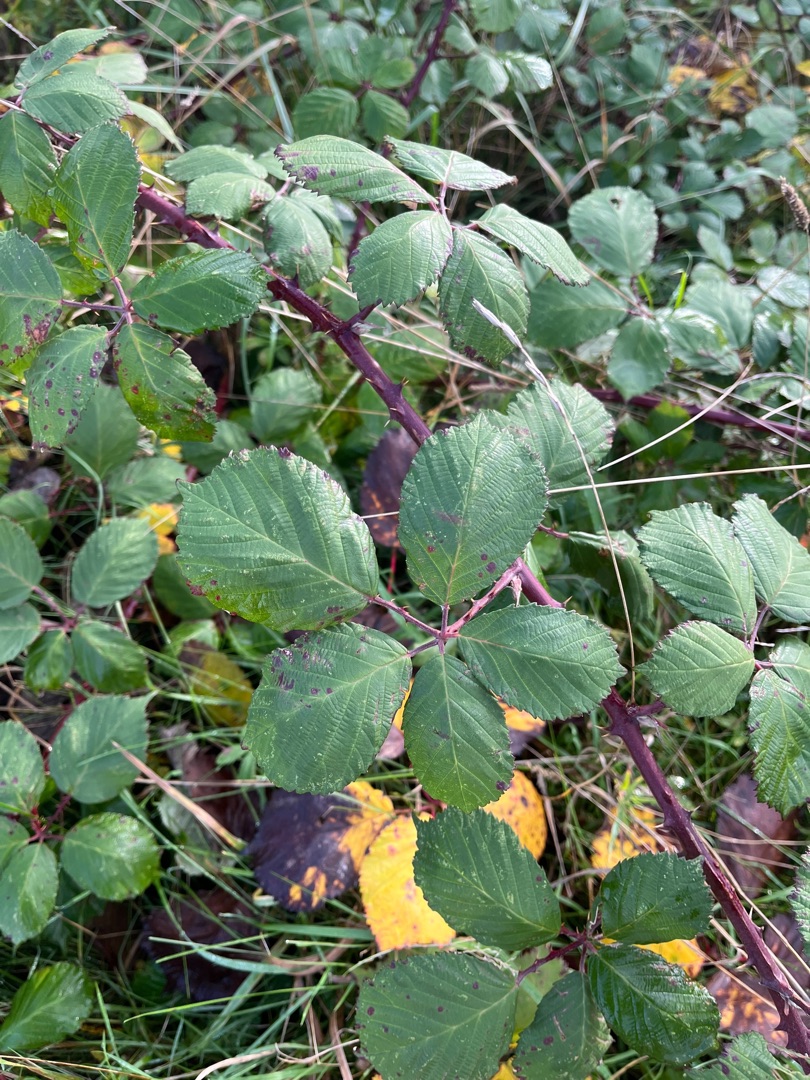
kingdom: Plantae
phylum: Tracheophyta
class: Magnoliopsida
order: Rosales
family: Rosaceae
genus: Rubus
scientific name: Rubus armeniacus
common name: Armensk brombær
